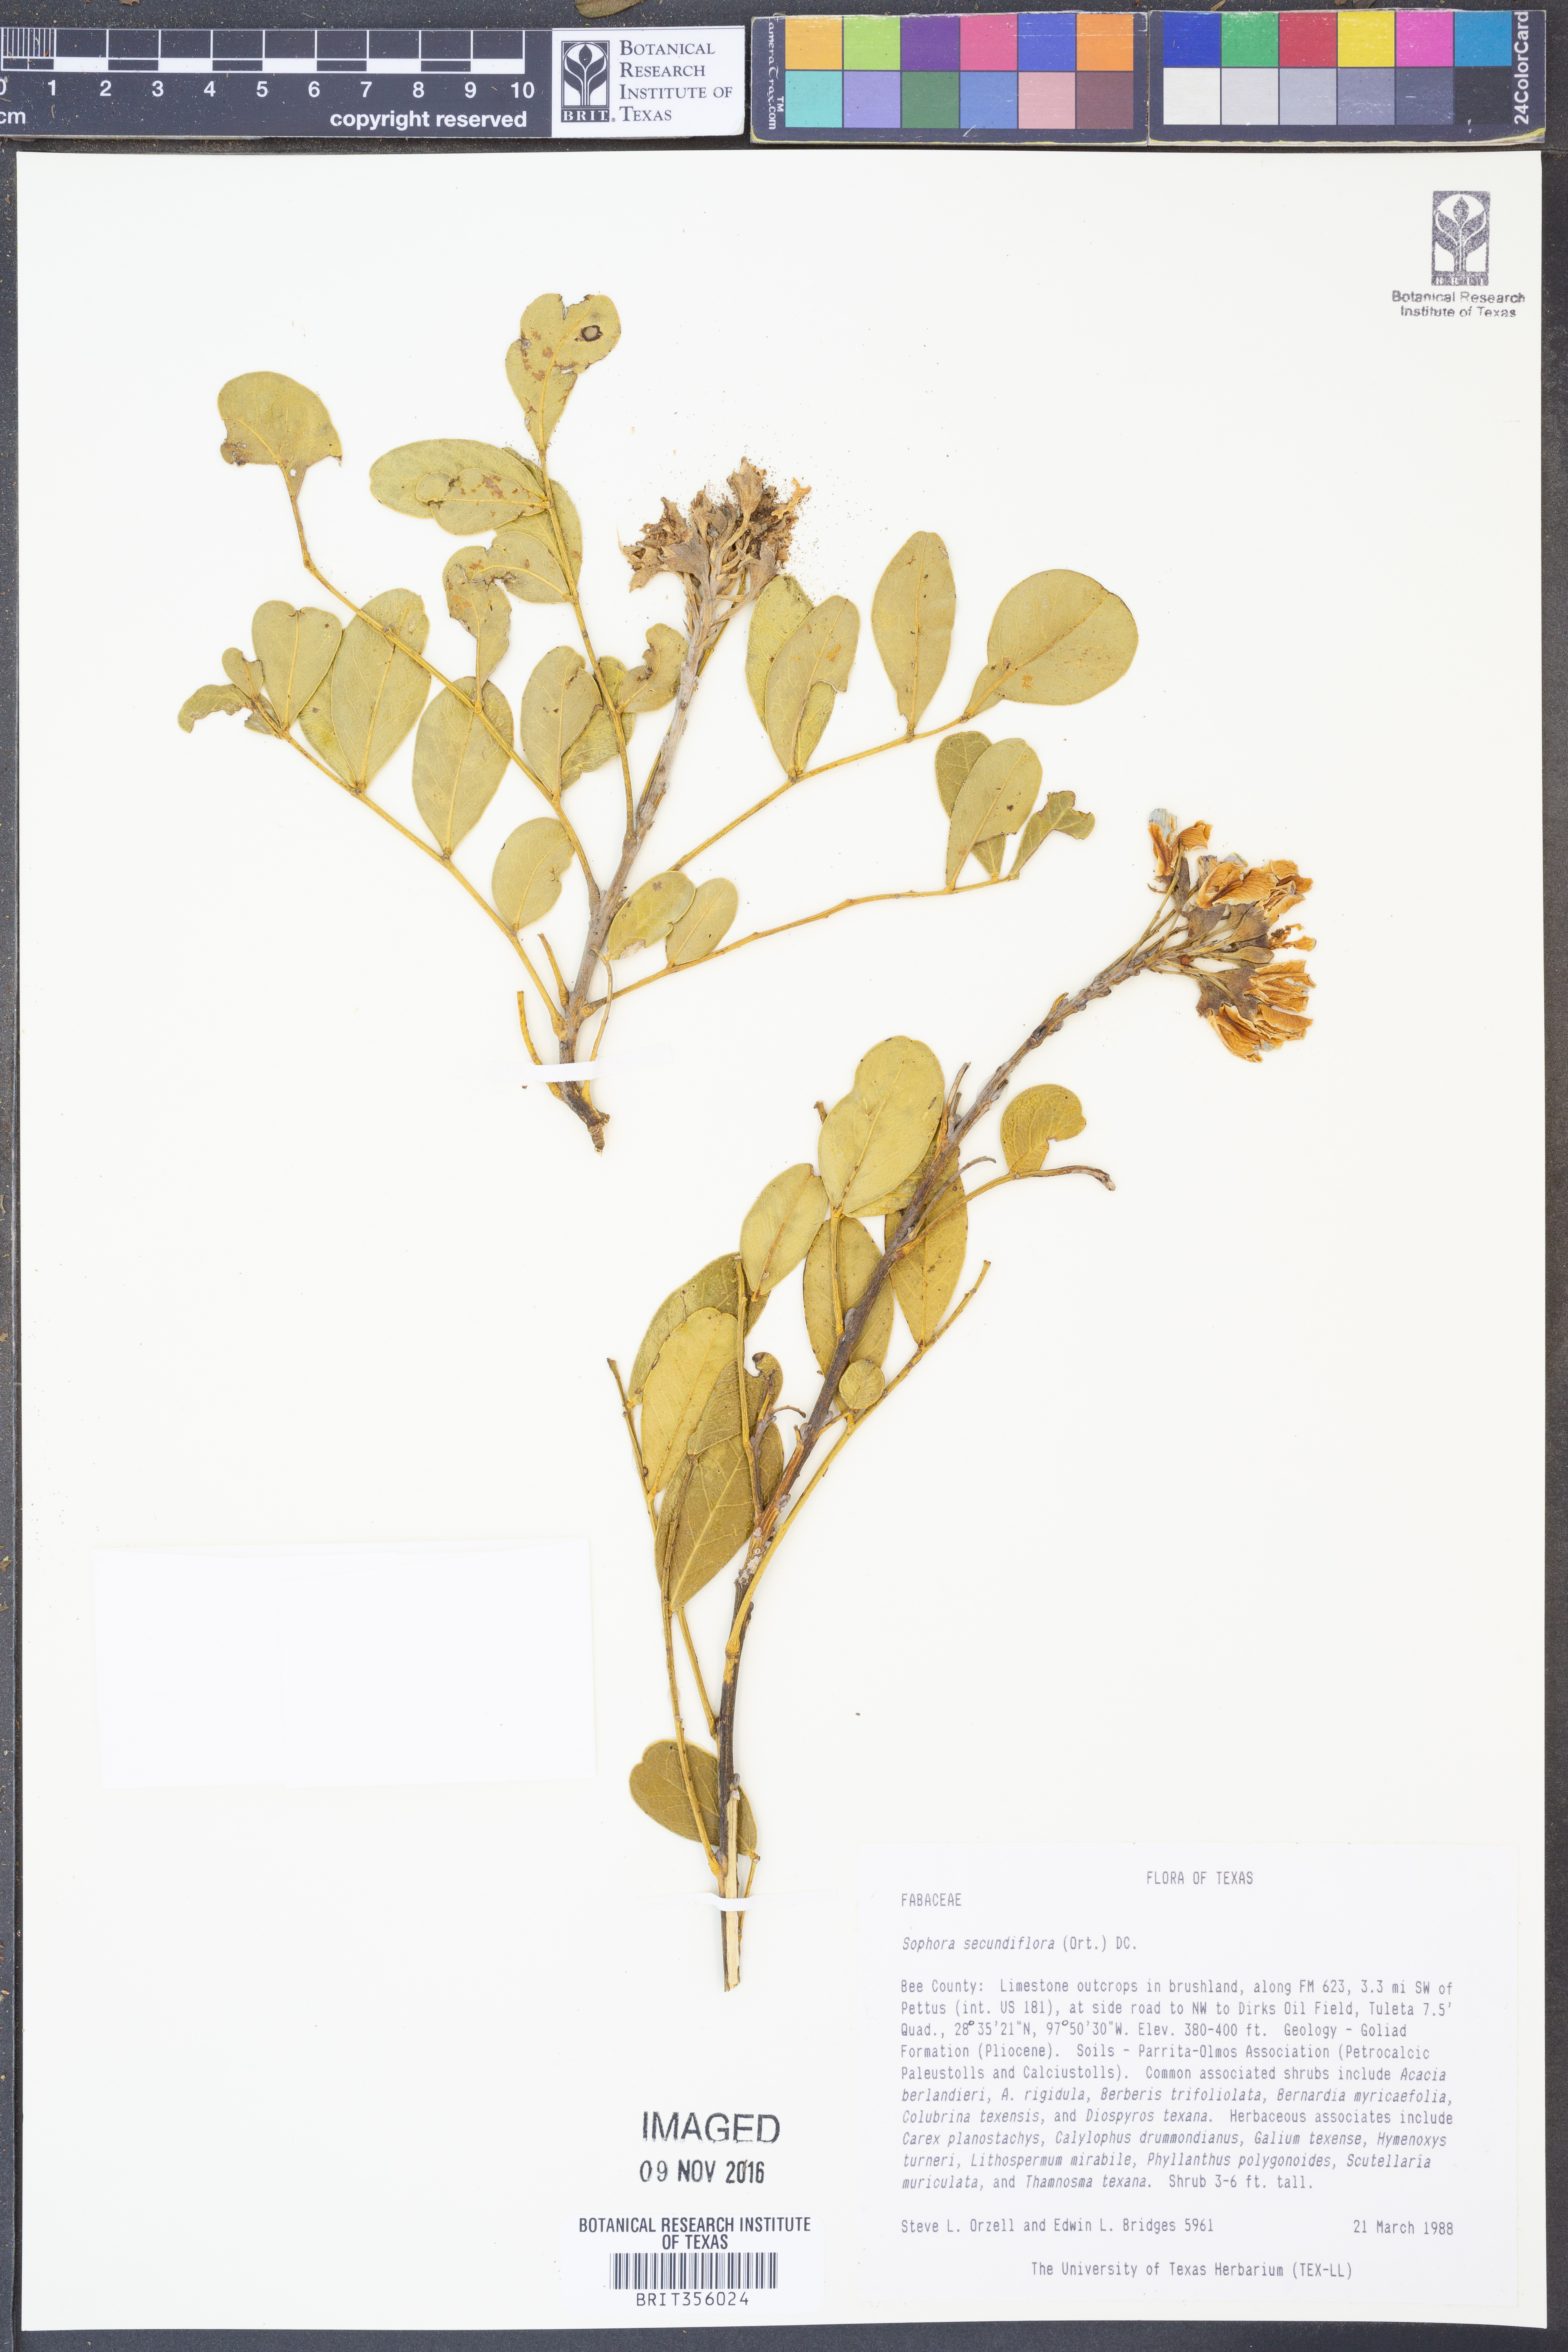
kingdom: Plantae
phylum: Tracheophyta
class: Magnoliopsida
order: Fabales
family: Fabaceae
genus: Dermatophyllum
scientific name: Dermatophyllum secundiflorum
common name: Texas-mountain-laurel
